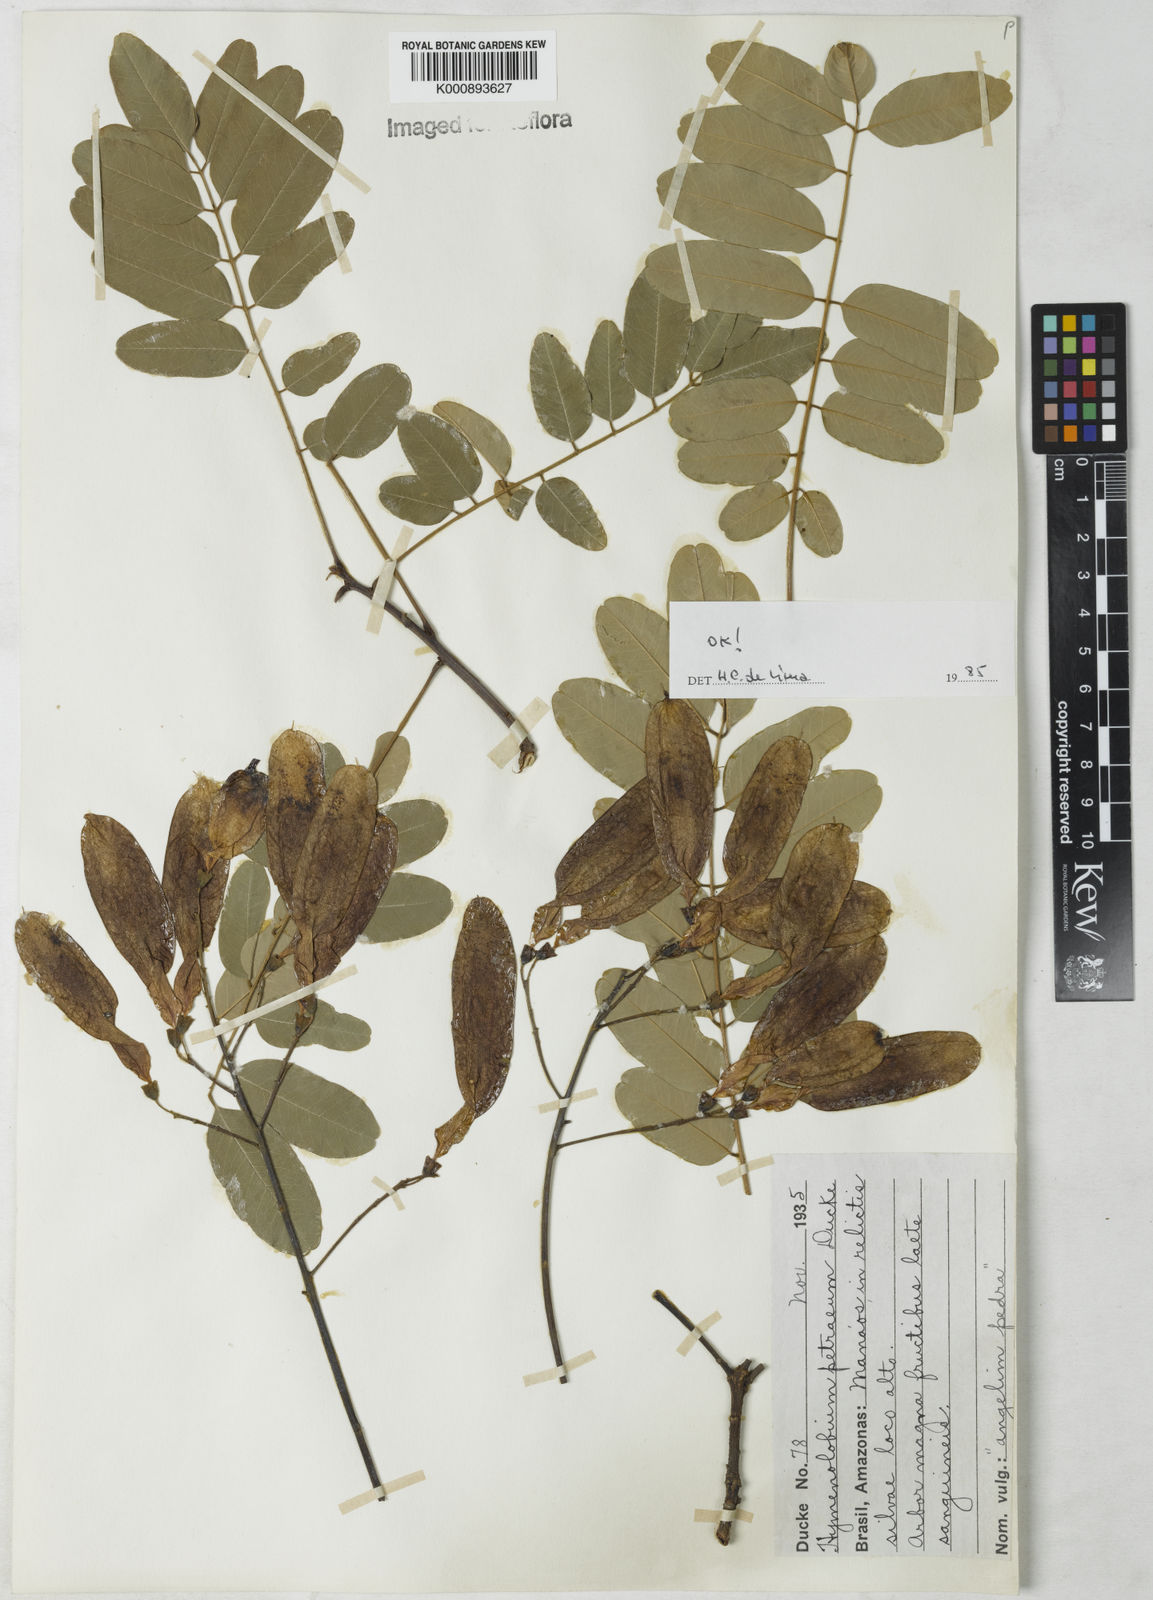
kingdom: Plantae
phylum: Tracheophyta
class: Magnoliopsida
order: Fabales
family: Fabaceae
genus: Hymenolobium
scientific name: Hymenolobium petraeum
